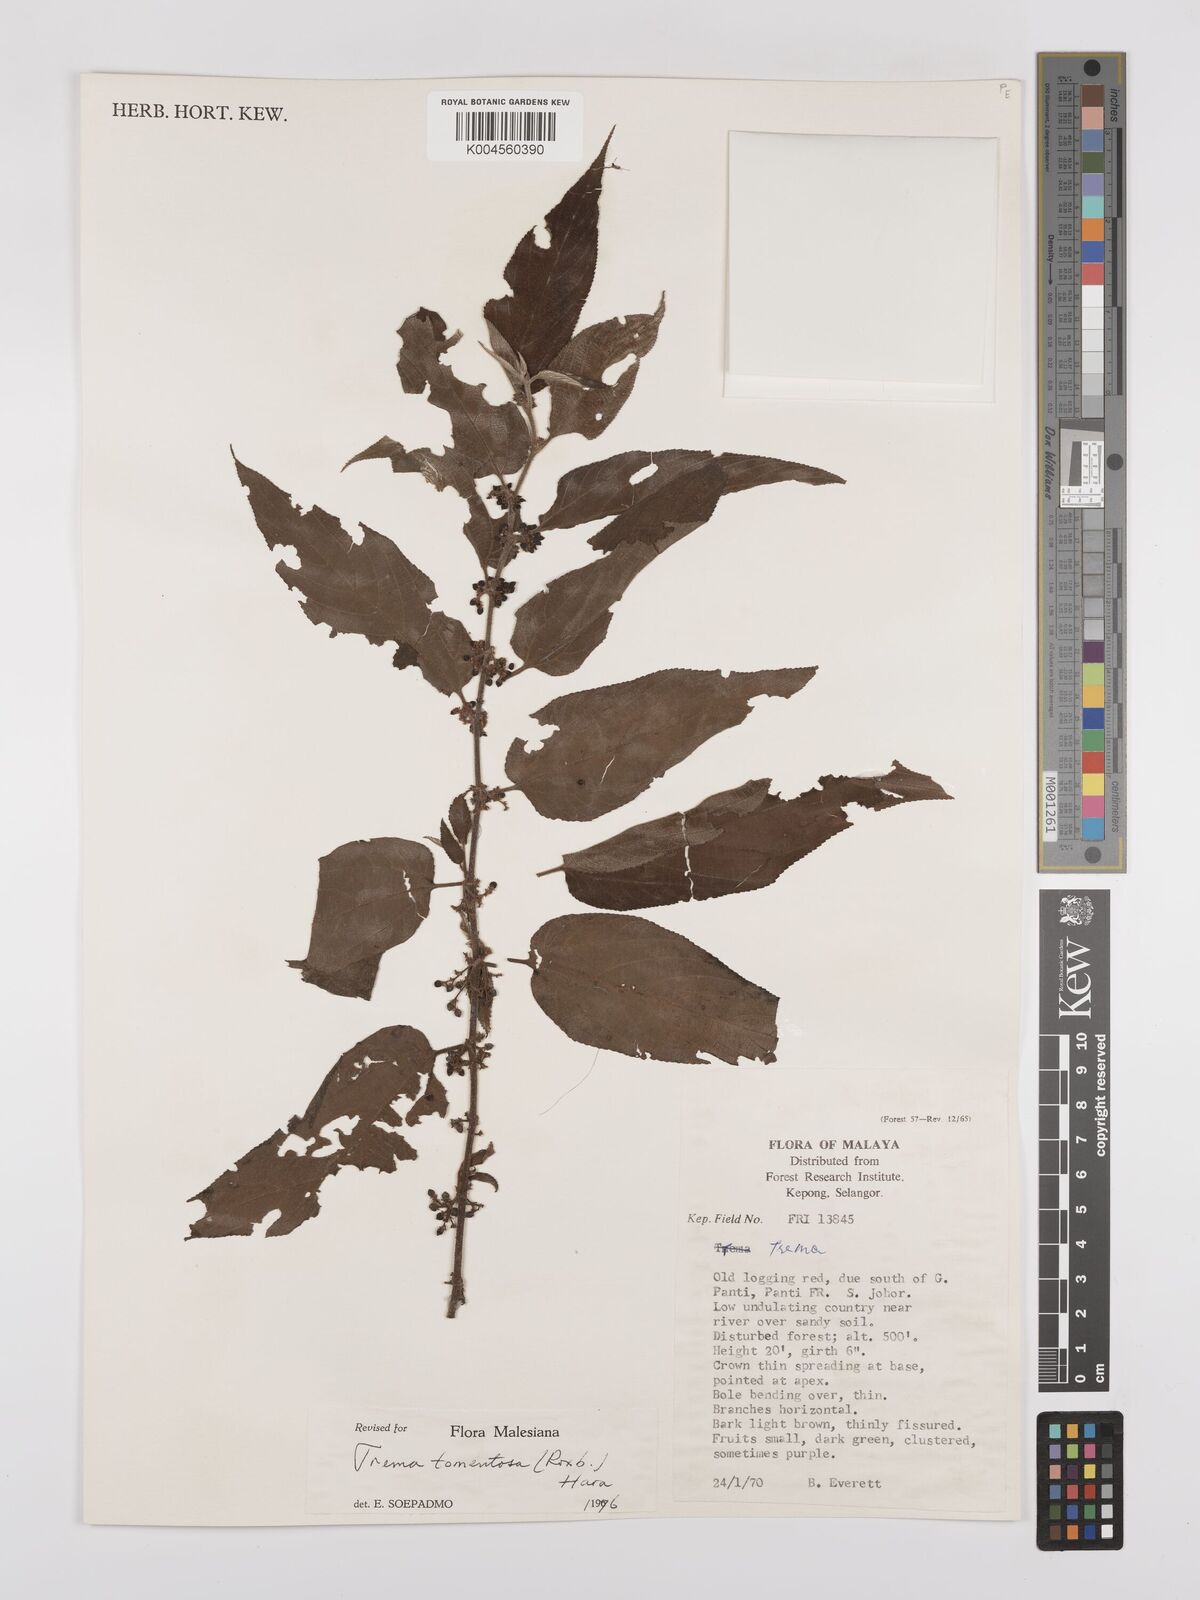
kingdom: Plantae
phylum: Tracheophyta
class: Magnoliopsida
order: Rosales
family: Cannabaceae
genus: Trema
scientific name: Trema tomentosum
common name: Peach-leaf-poisonbush
